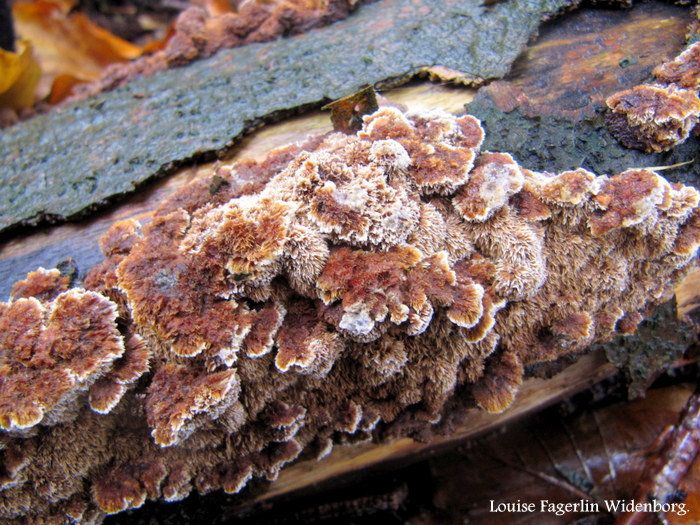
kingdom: Fungi
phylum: Basidiomycota
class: Agaricomycetes
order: Hymenochaetales
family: Hymenochaetaceae
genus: Mensularia
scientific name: Mensularia nodulosa
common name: bøge-spejlporesvamp
